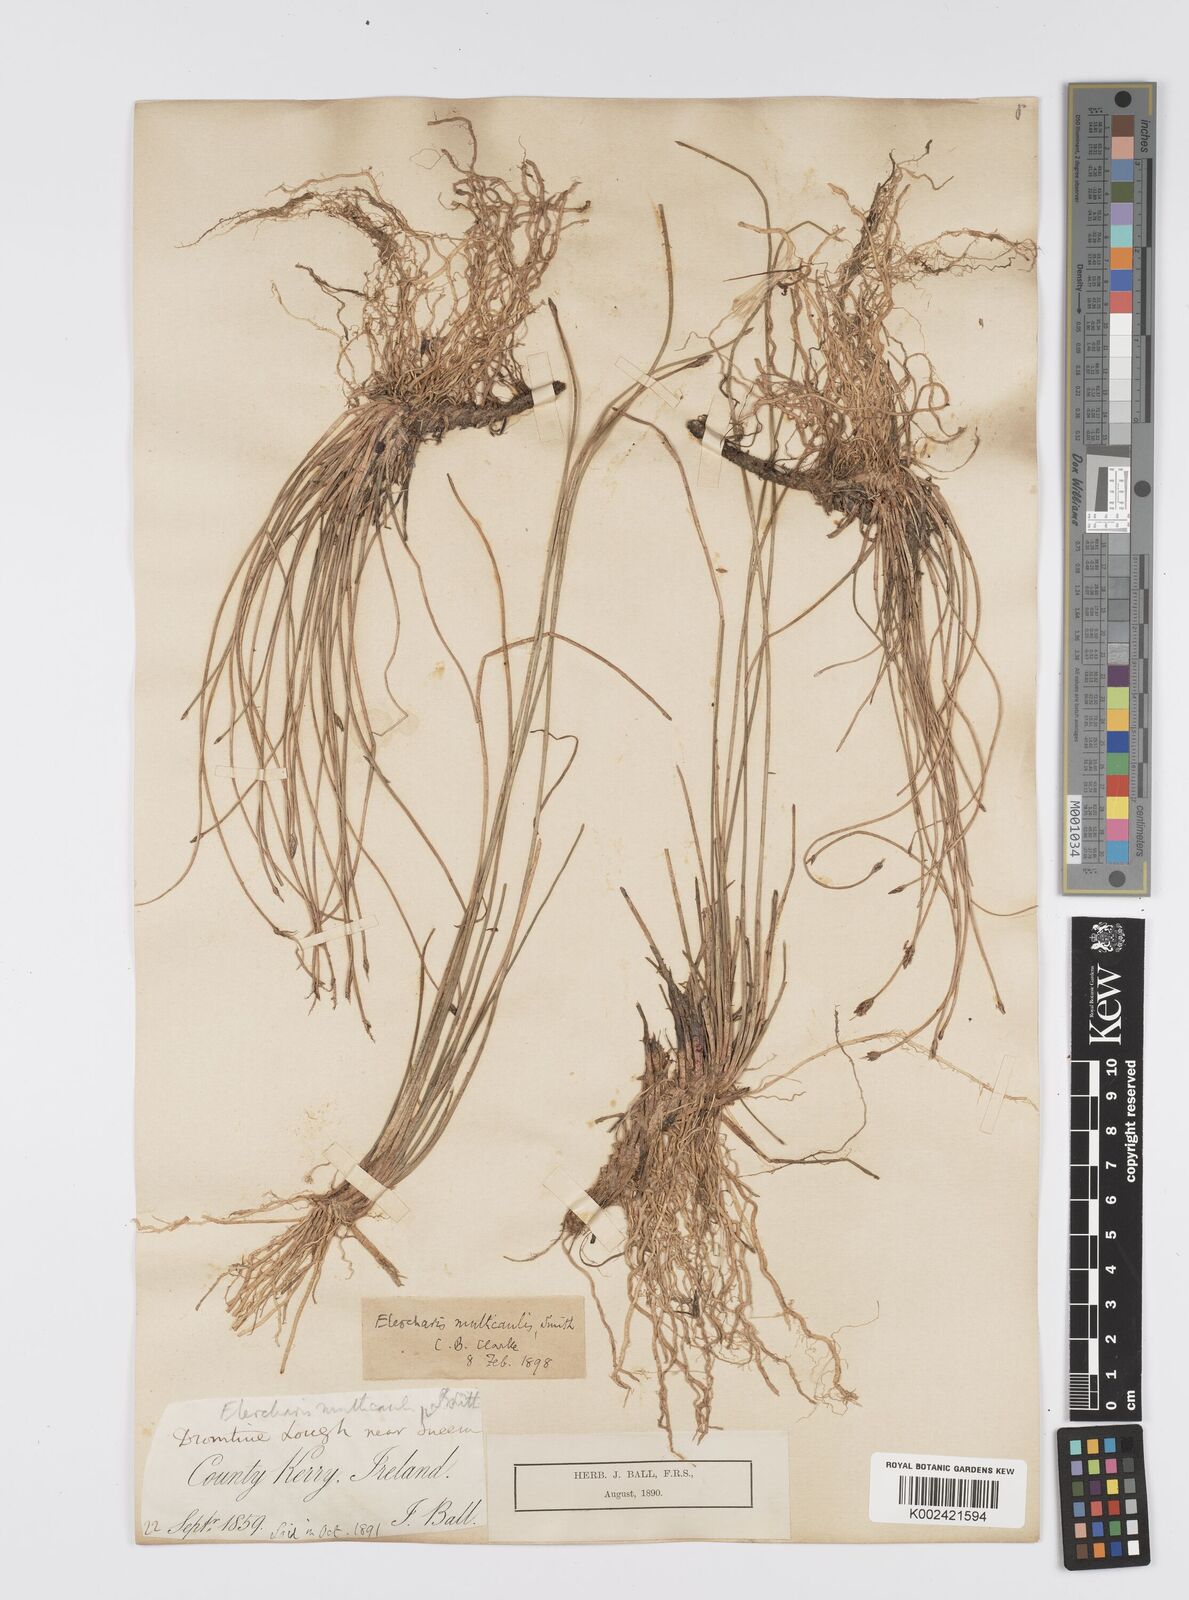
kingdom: Plantae
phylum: Tracheophyta
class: Liliopsida
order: Poales
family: Cyperaceae
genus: Eleocharis
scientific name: Eleocharis multicaulis
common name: Many-stalked spike-rush
